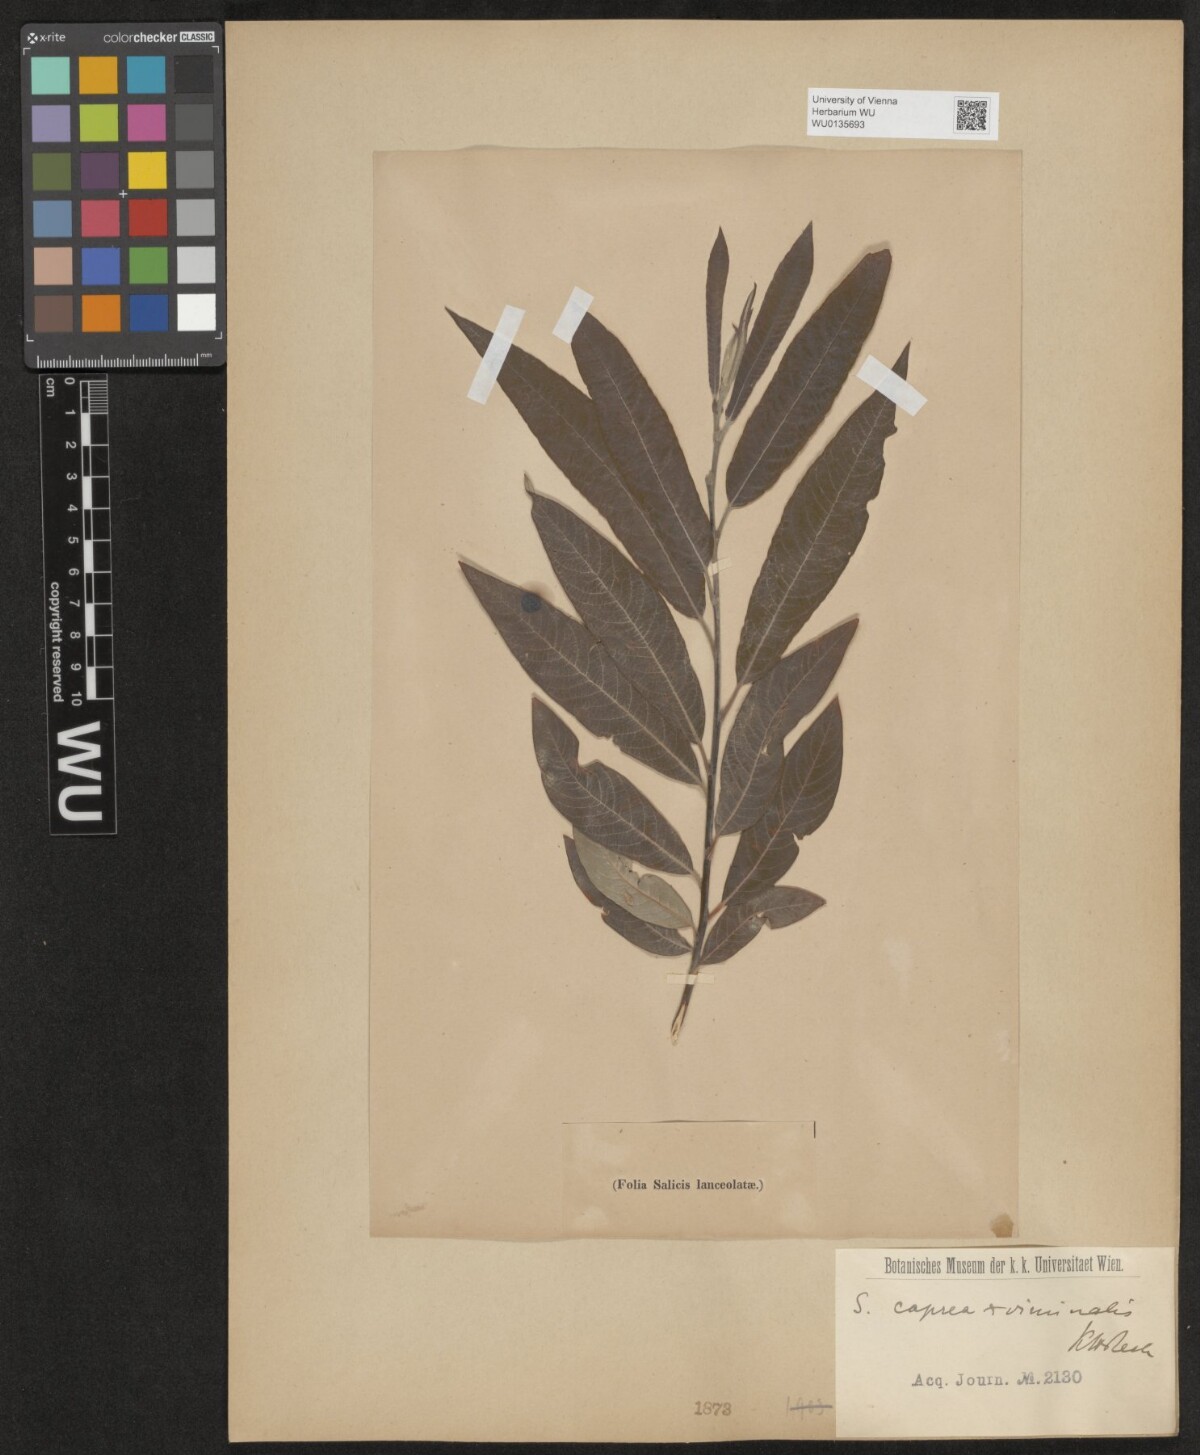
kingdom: Plantae
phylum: Tracheophyta
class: Magnoliopsida
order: Malpighiales
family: Salicaceae
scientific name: Salicaceae
